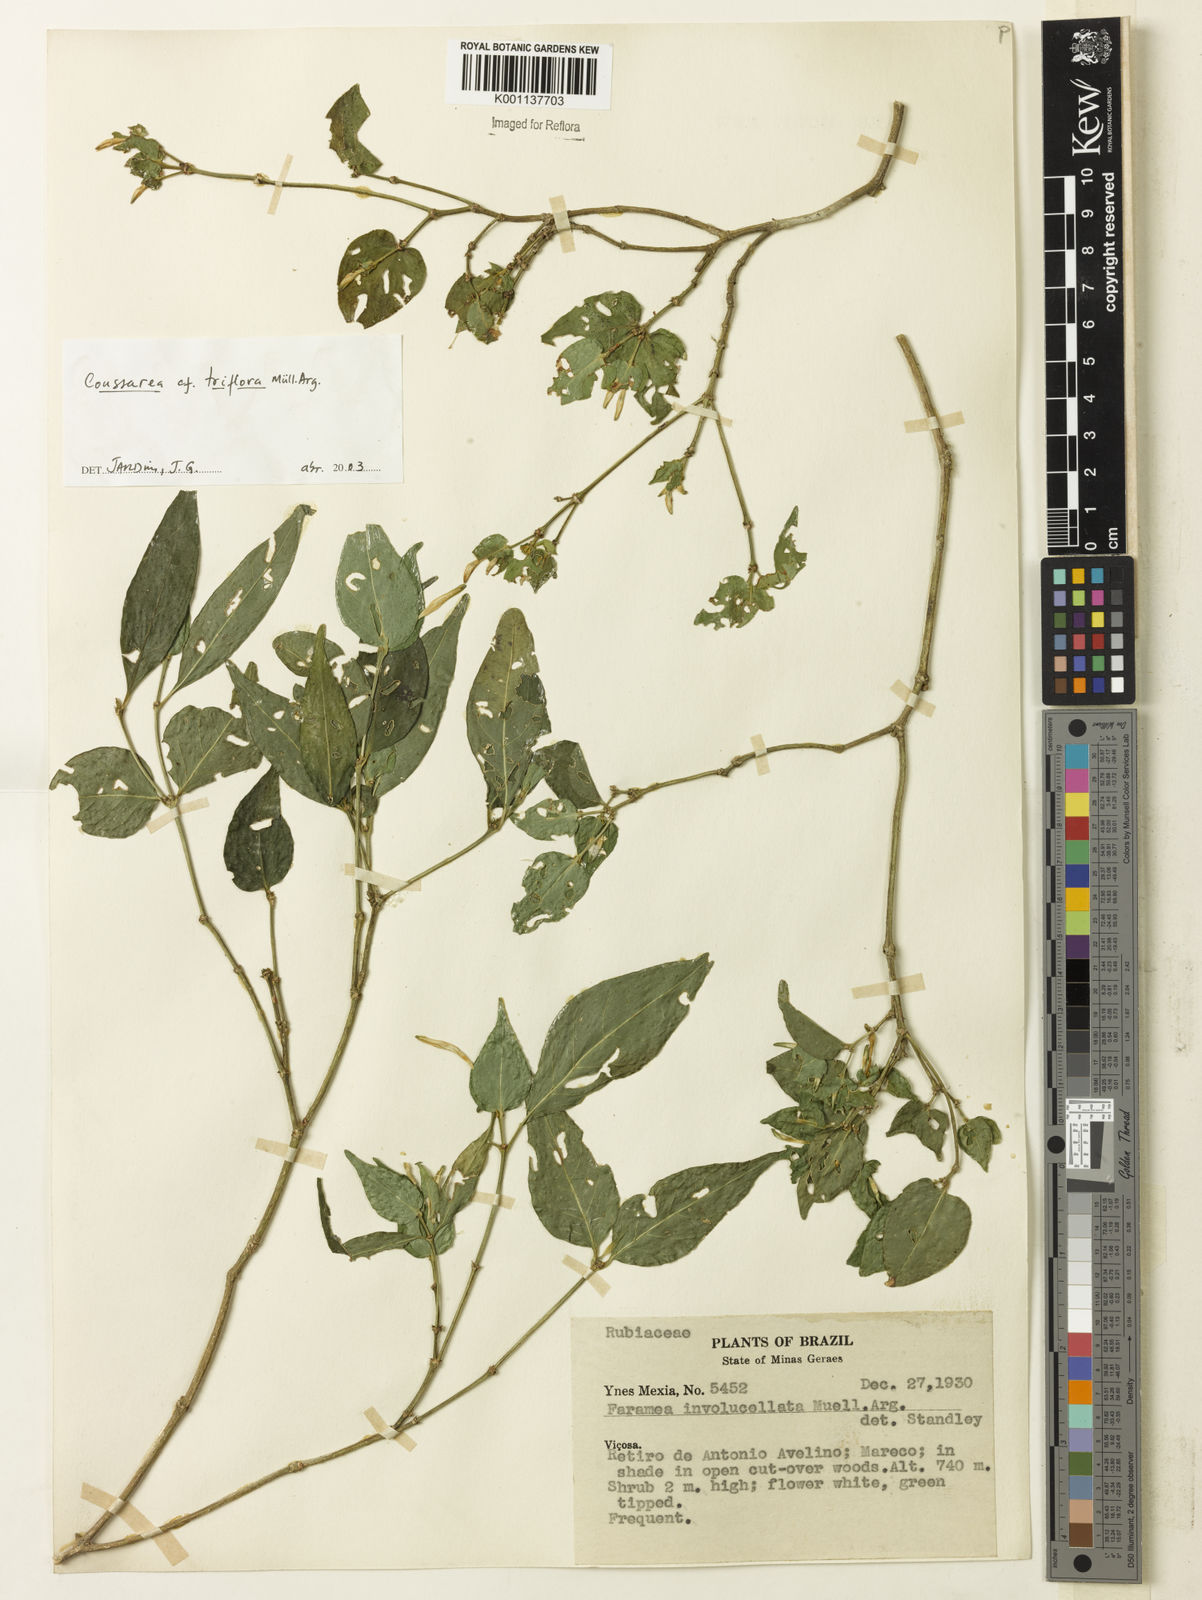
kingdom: Plantae
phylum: Tracheophyta
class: Magnoliopsida
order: Gentianales
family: Rubiaceae
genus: Coussarea
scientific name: Coussarea
